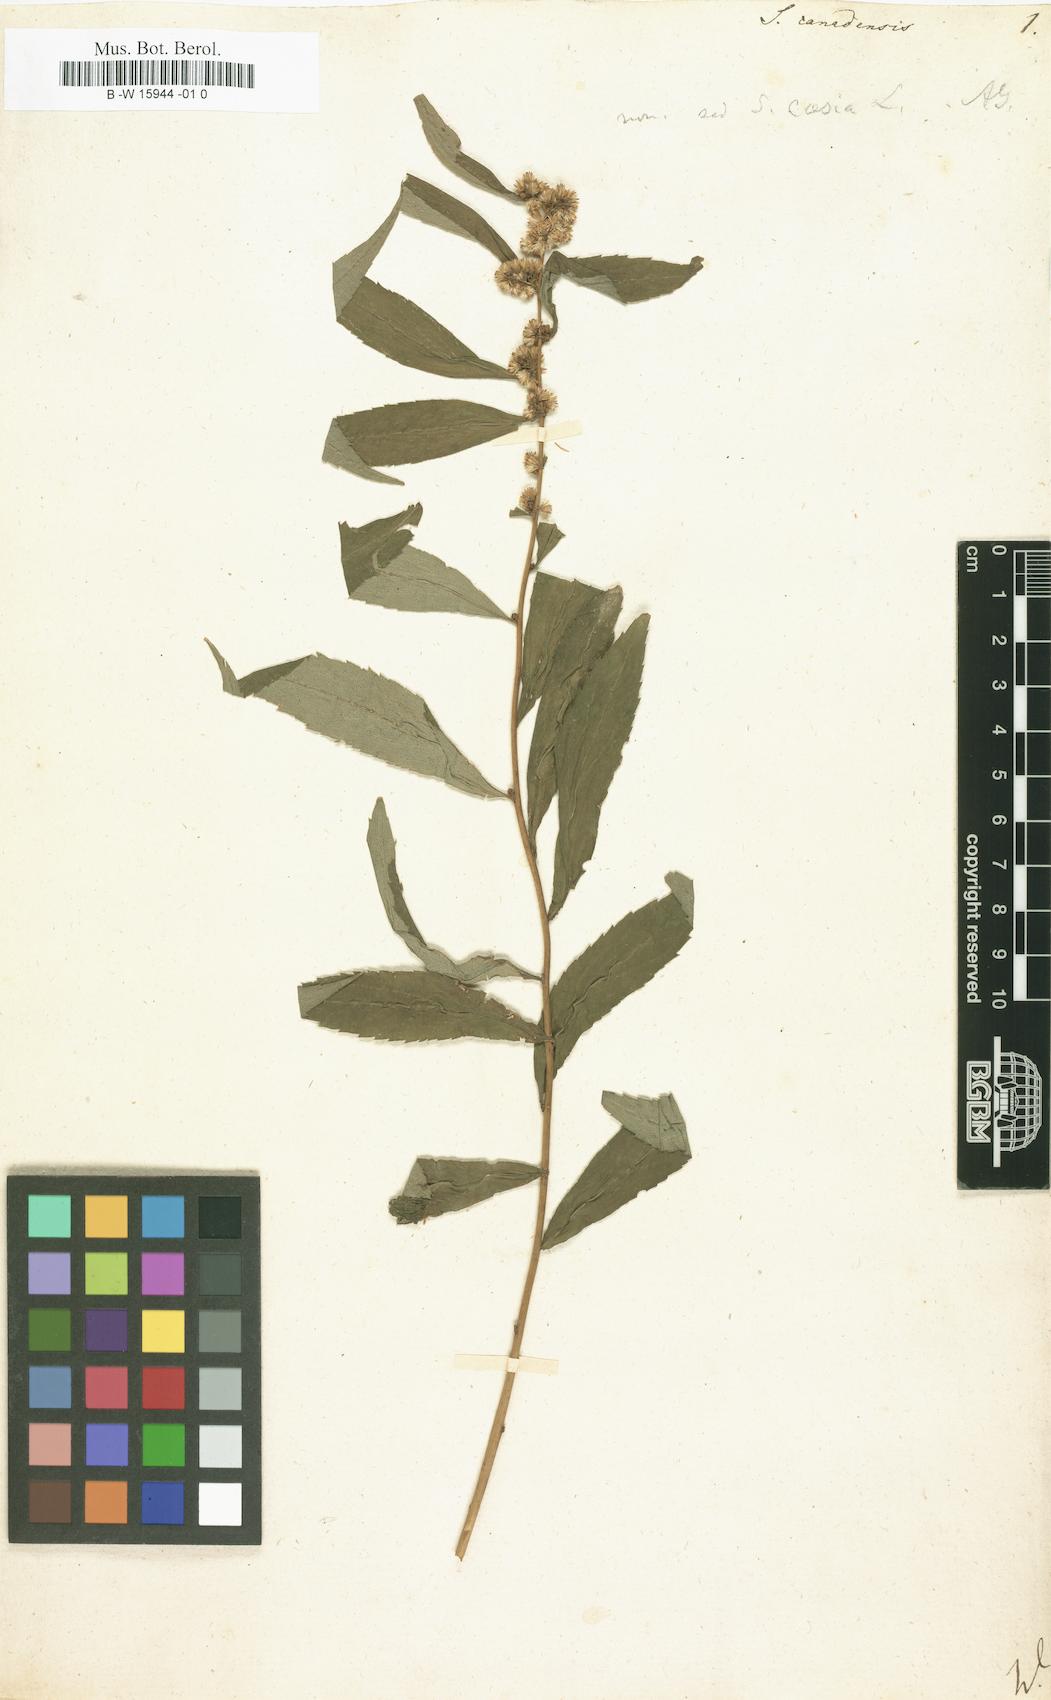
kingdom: Plantae
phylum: Tracheophyta
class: Magnoliopsida
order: Asterales
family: Asteraceae
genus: Solidago
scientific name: Solidago canadensis
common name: Canada goldenrod
